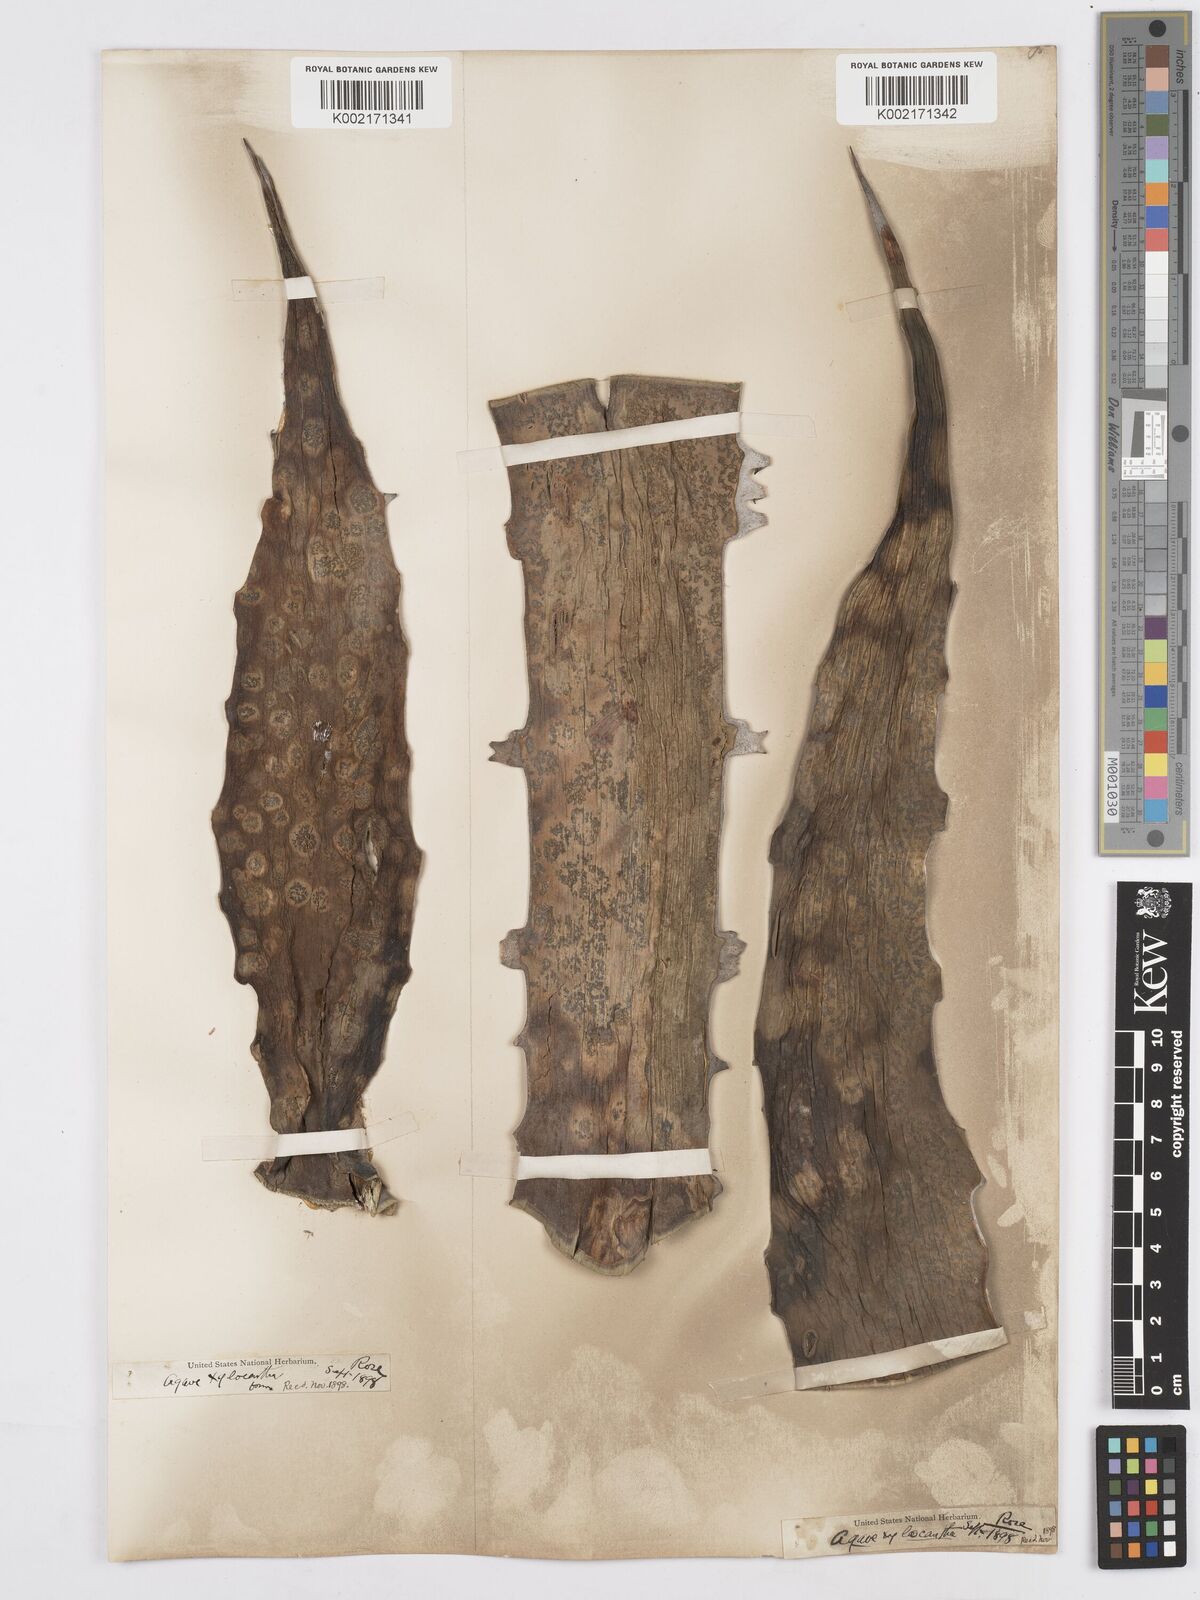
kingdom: Plantae
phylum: Tracheophyta
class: Liliopsida
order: Asparagales
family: Asparagaceae
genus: Agave
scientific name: Agave xylonacantha
